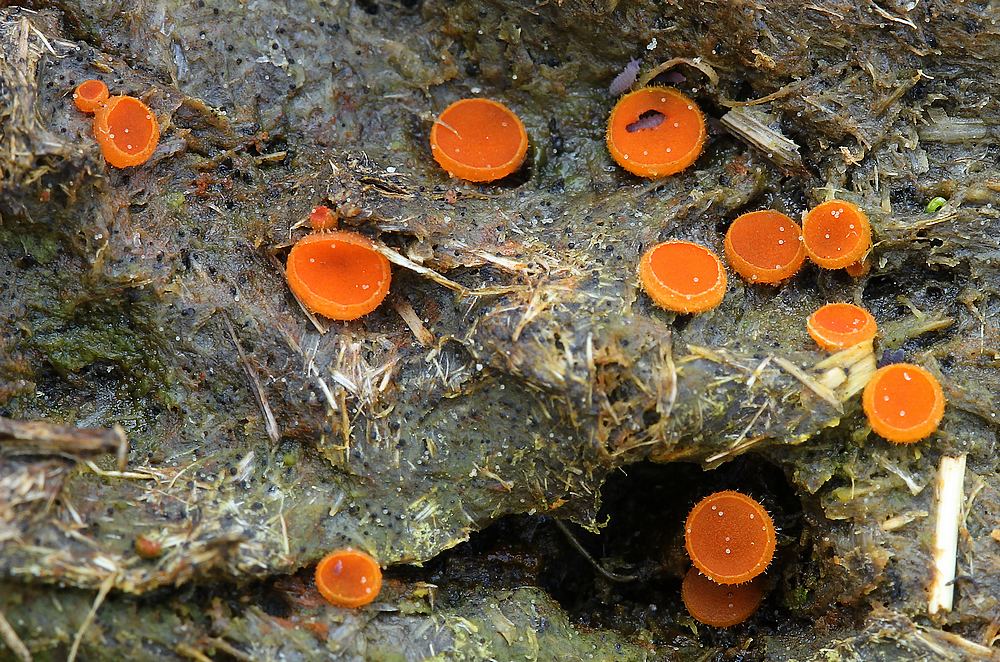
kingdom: Fungi
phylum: Ascomycota
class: Pezizomycetes
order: Pezizales
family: Pyronemataceae
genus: Cheilymenia
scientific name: Cheilymenia
